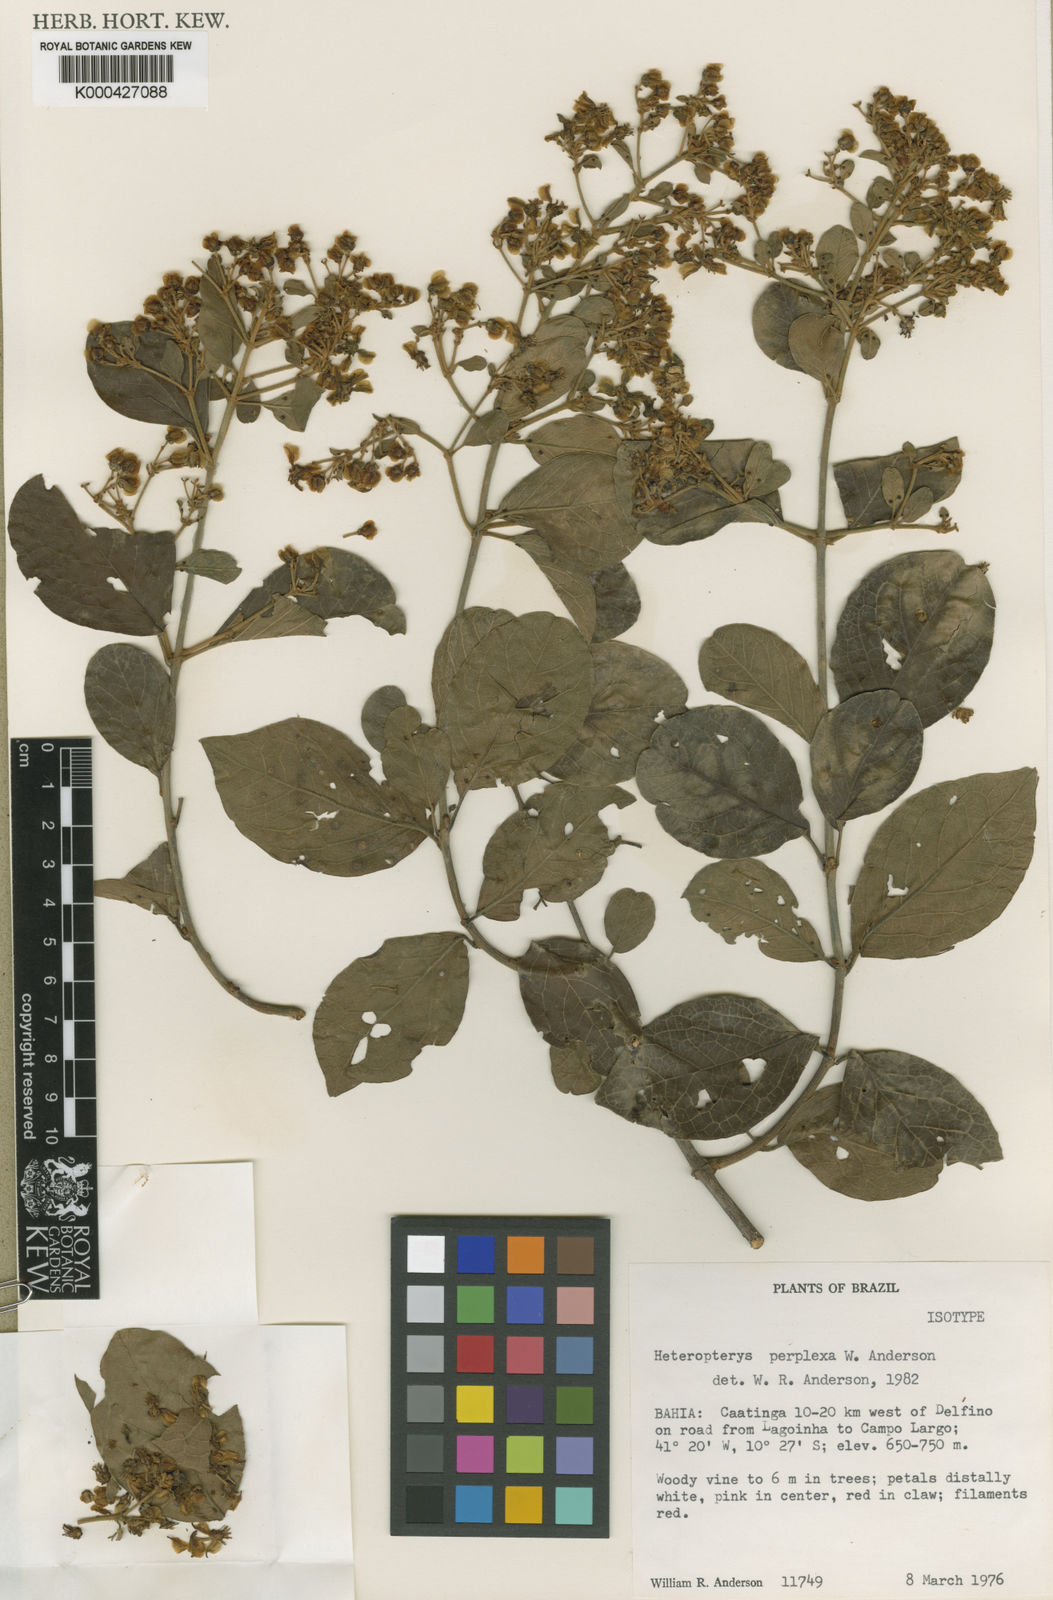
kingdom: Plantae
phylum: Tracheophyta
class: Magnoliopsida
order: Malpighiales
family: Malpighiaceae
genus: Heteropterys
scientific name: Heteropterys perplexa
